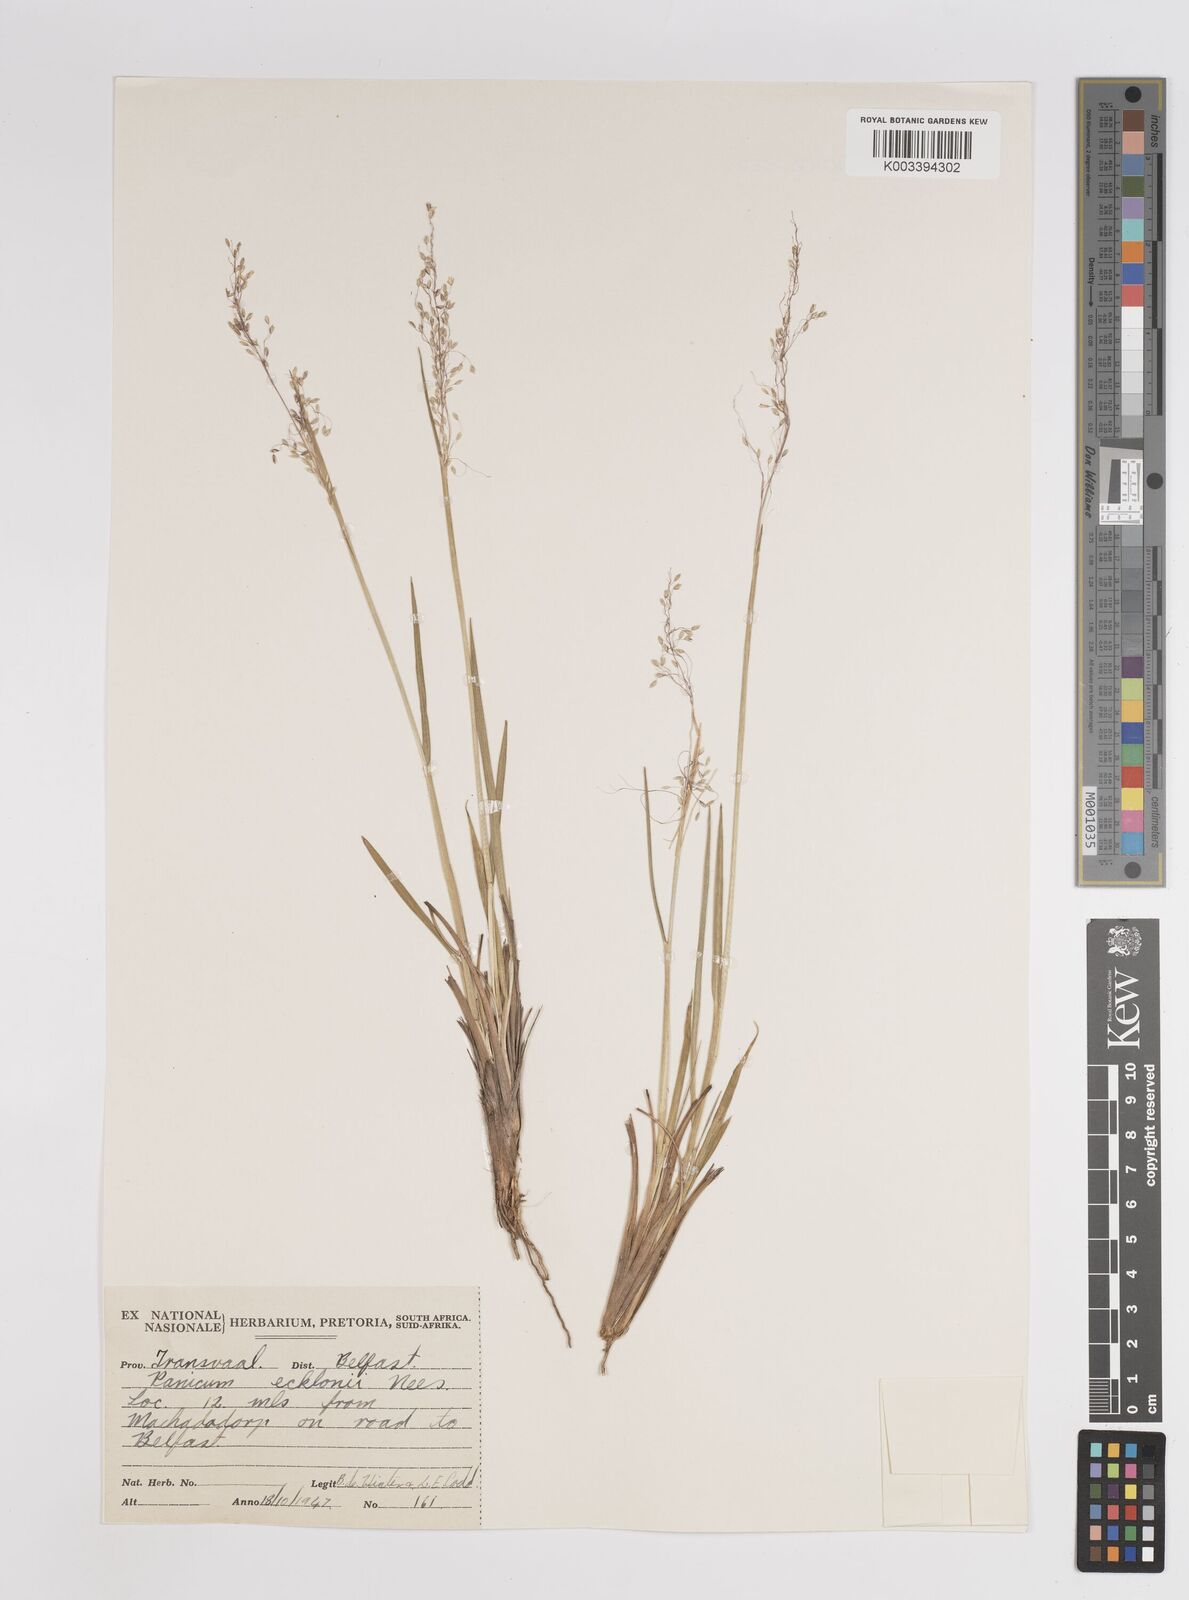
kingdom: Plantae
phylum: Tracheophyta
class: Liliopsida
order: Poales
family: Poaceae
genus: Adenochloa
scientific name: Adenochloa ecklonii
